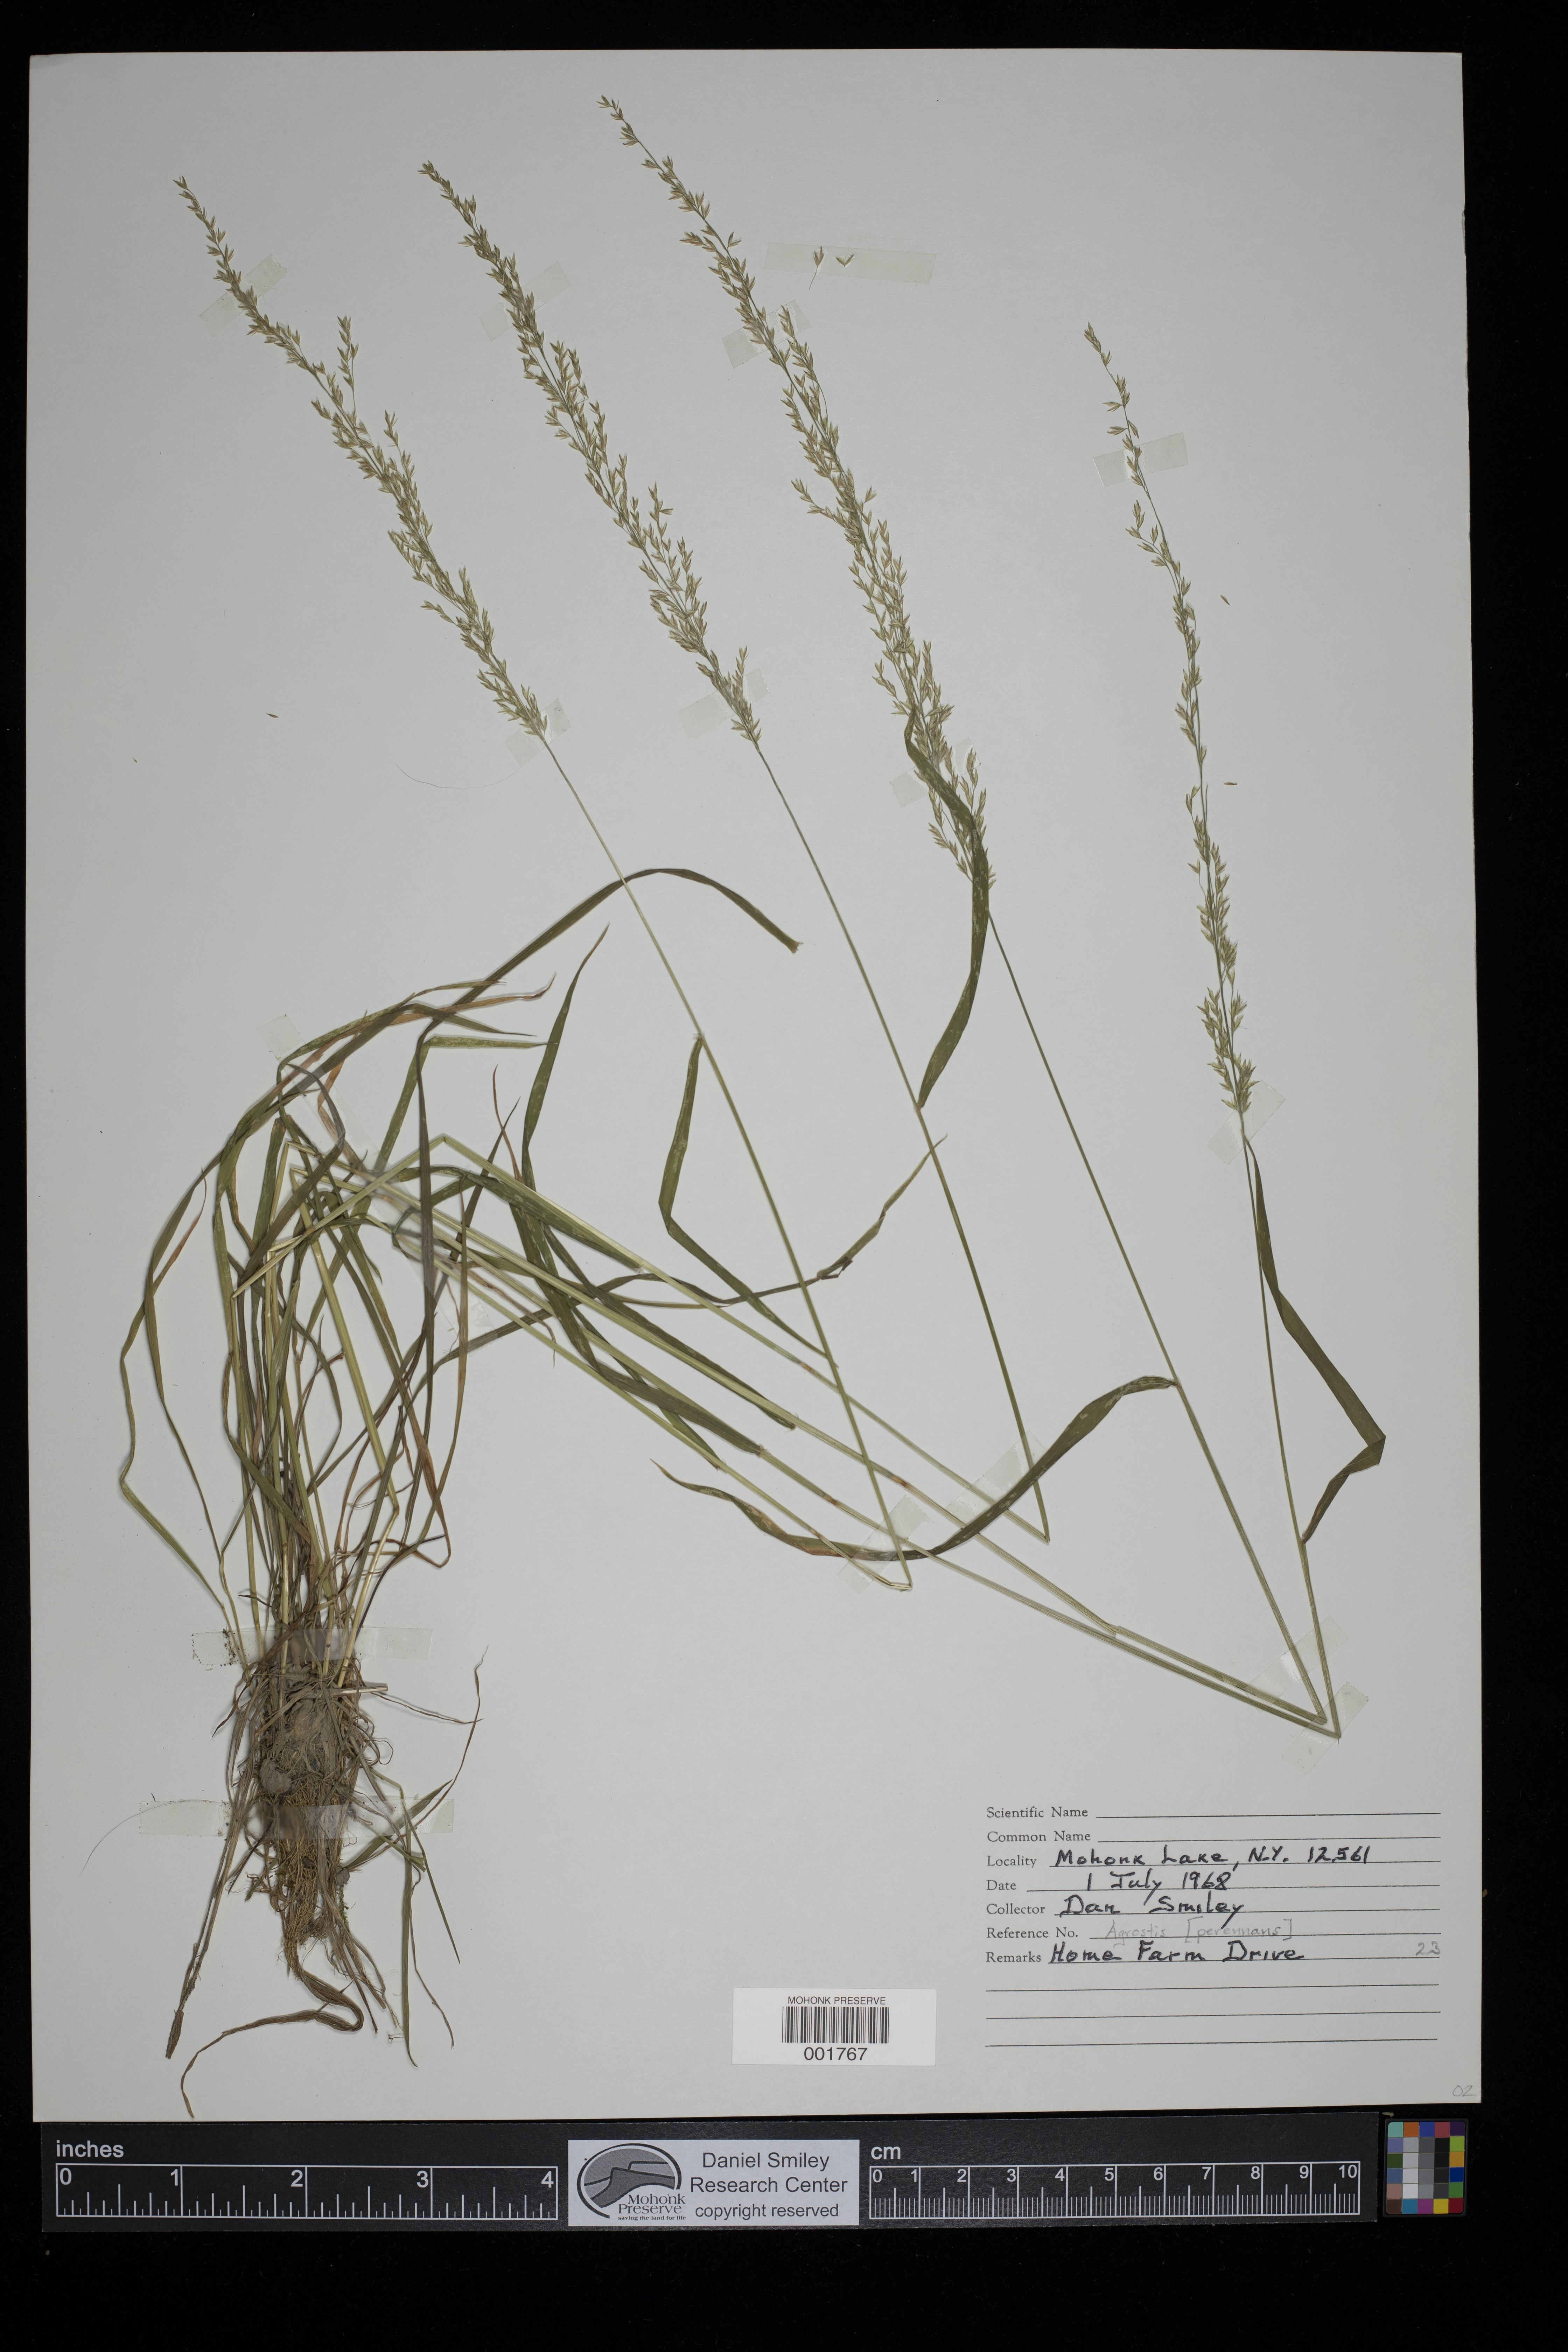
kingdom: Plantae
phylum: Tracheophyta
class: Liliopsida
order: Poales
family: Poaceae
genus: Agrostis
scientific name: Agrostis perennans
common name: Autumn bent
